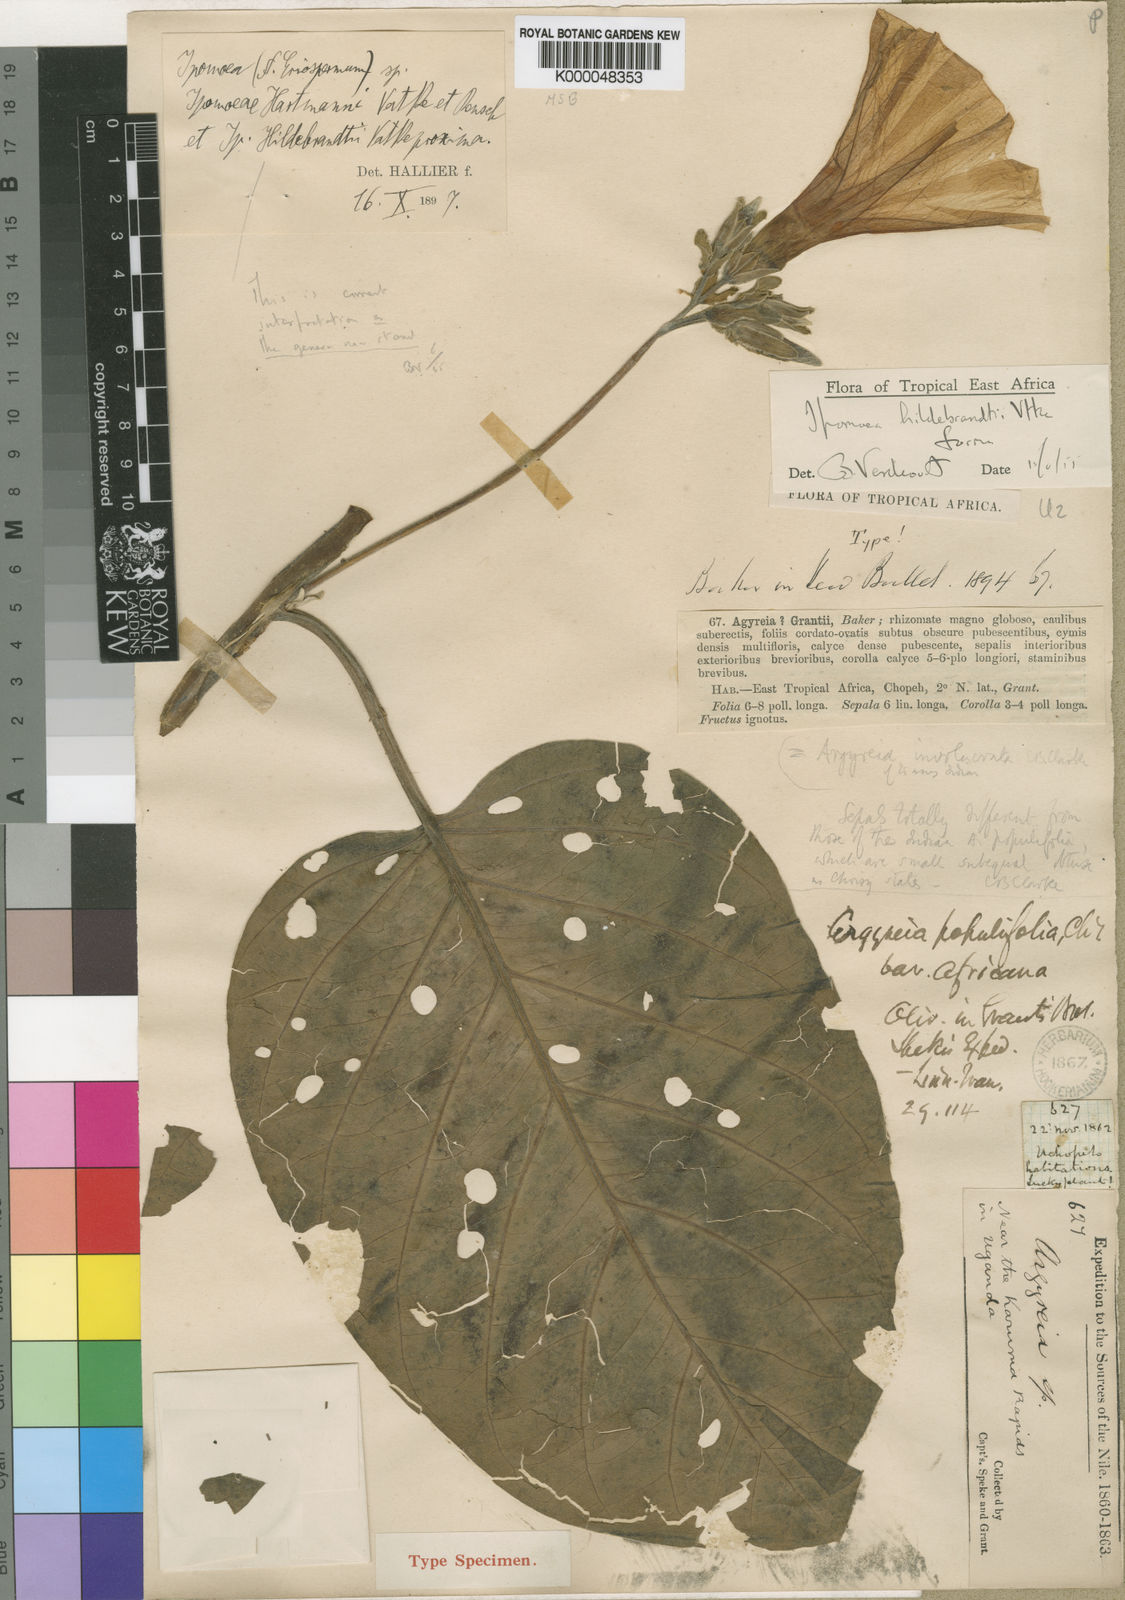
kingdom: Plantae
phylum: Tracheophyta
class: Magnoliopsida
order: Solanales
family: Convolvulaceae
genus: Ipomoea
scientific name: Ipomoea hildebrandtii
